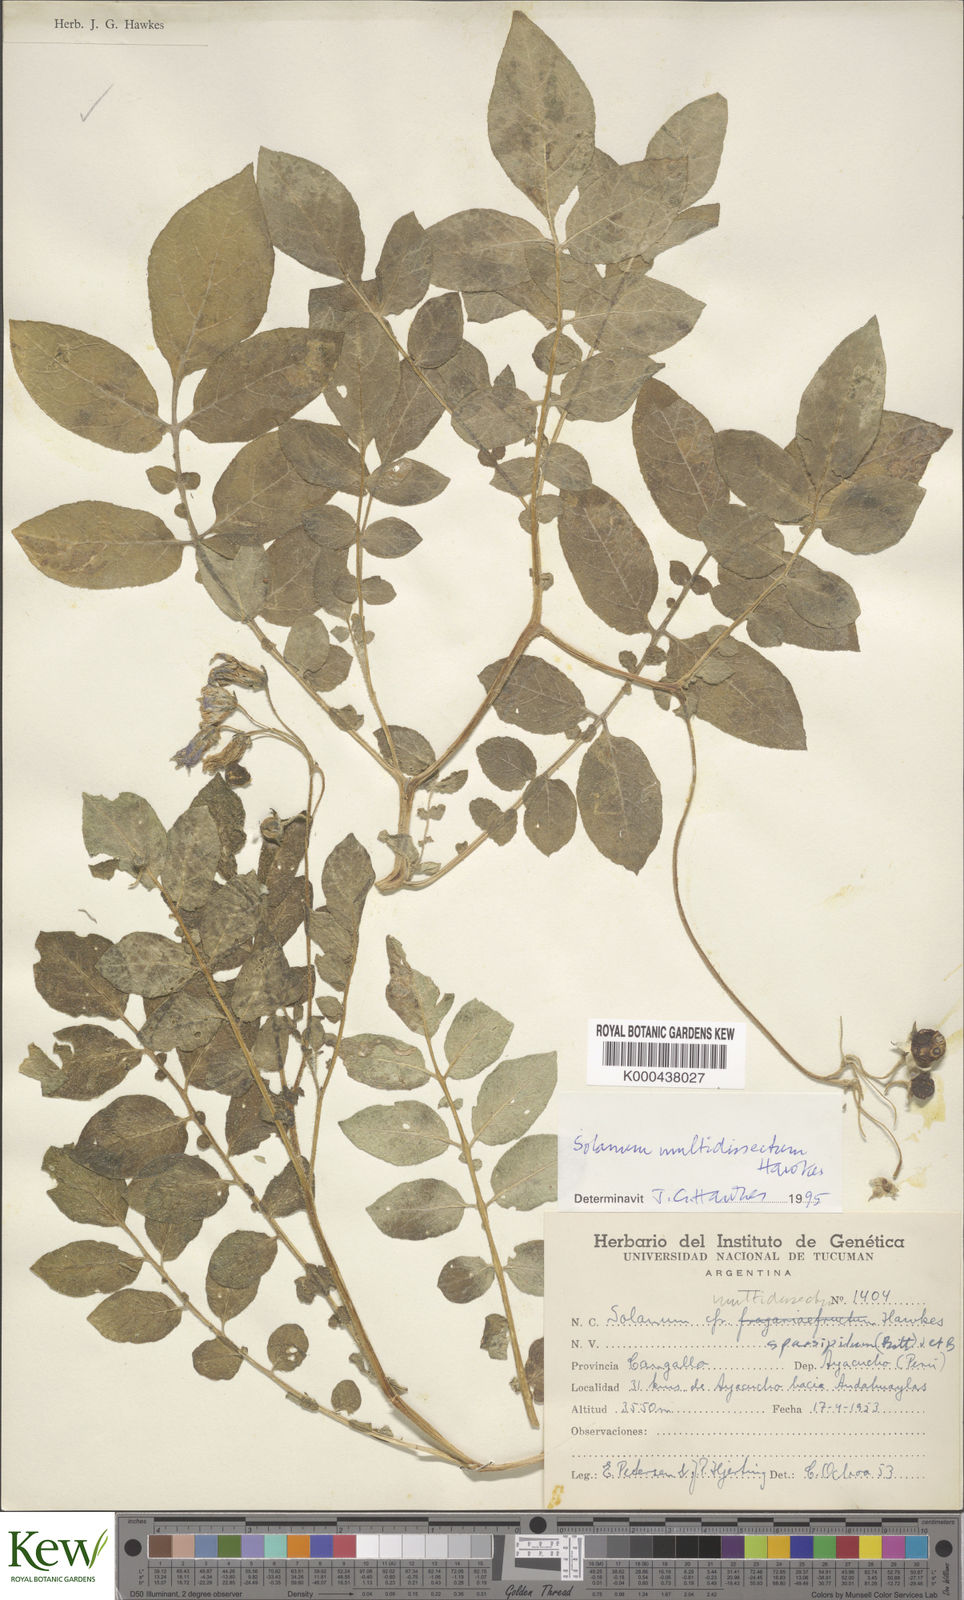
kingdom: Plantae
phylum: Tracheophyta
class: Magnoliopsida
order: Solanales
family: Solanaceae
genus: Solanum
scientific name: Solanum candolleanum
